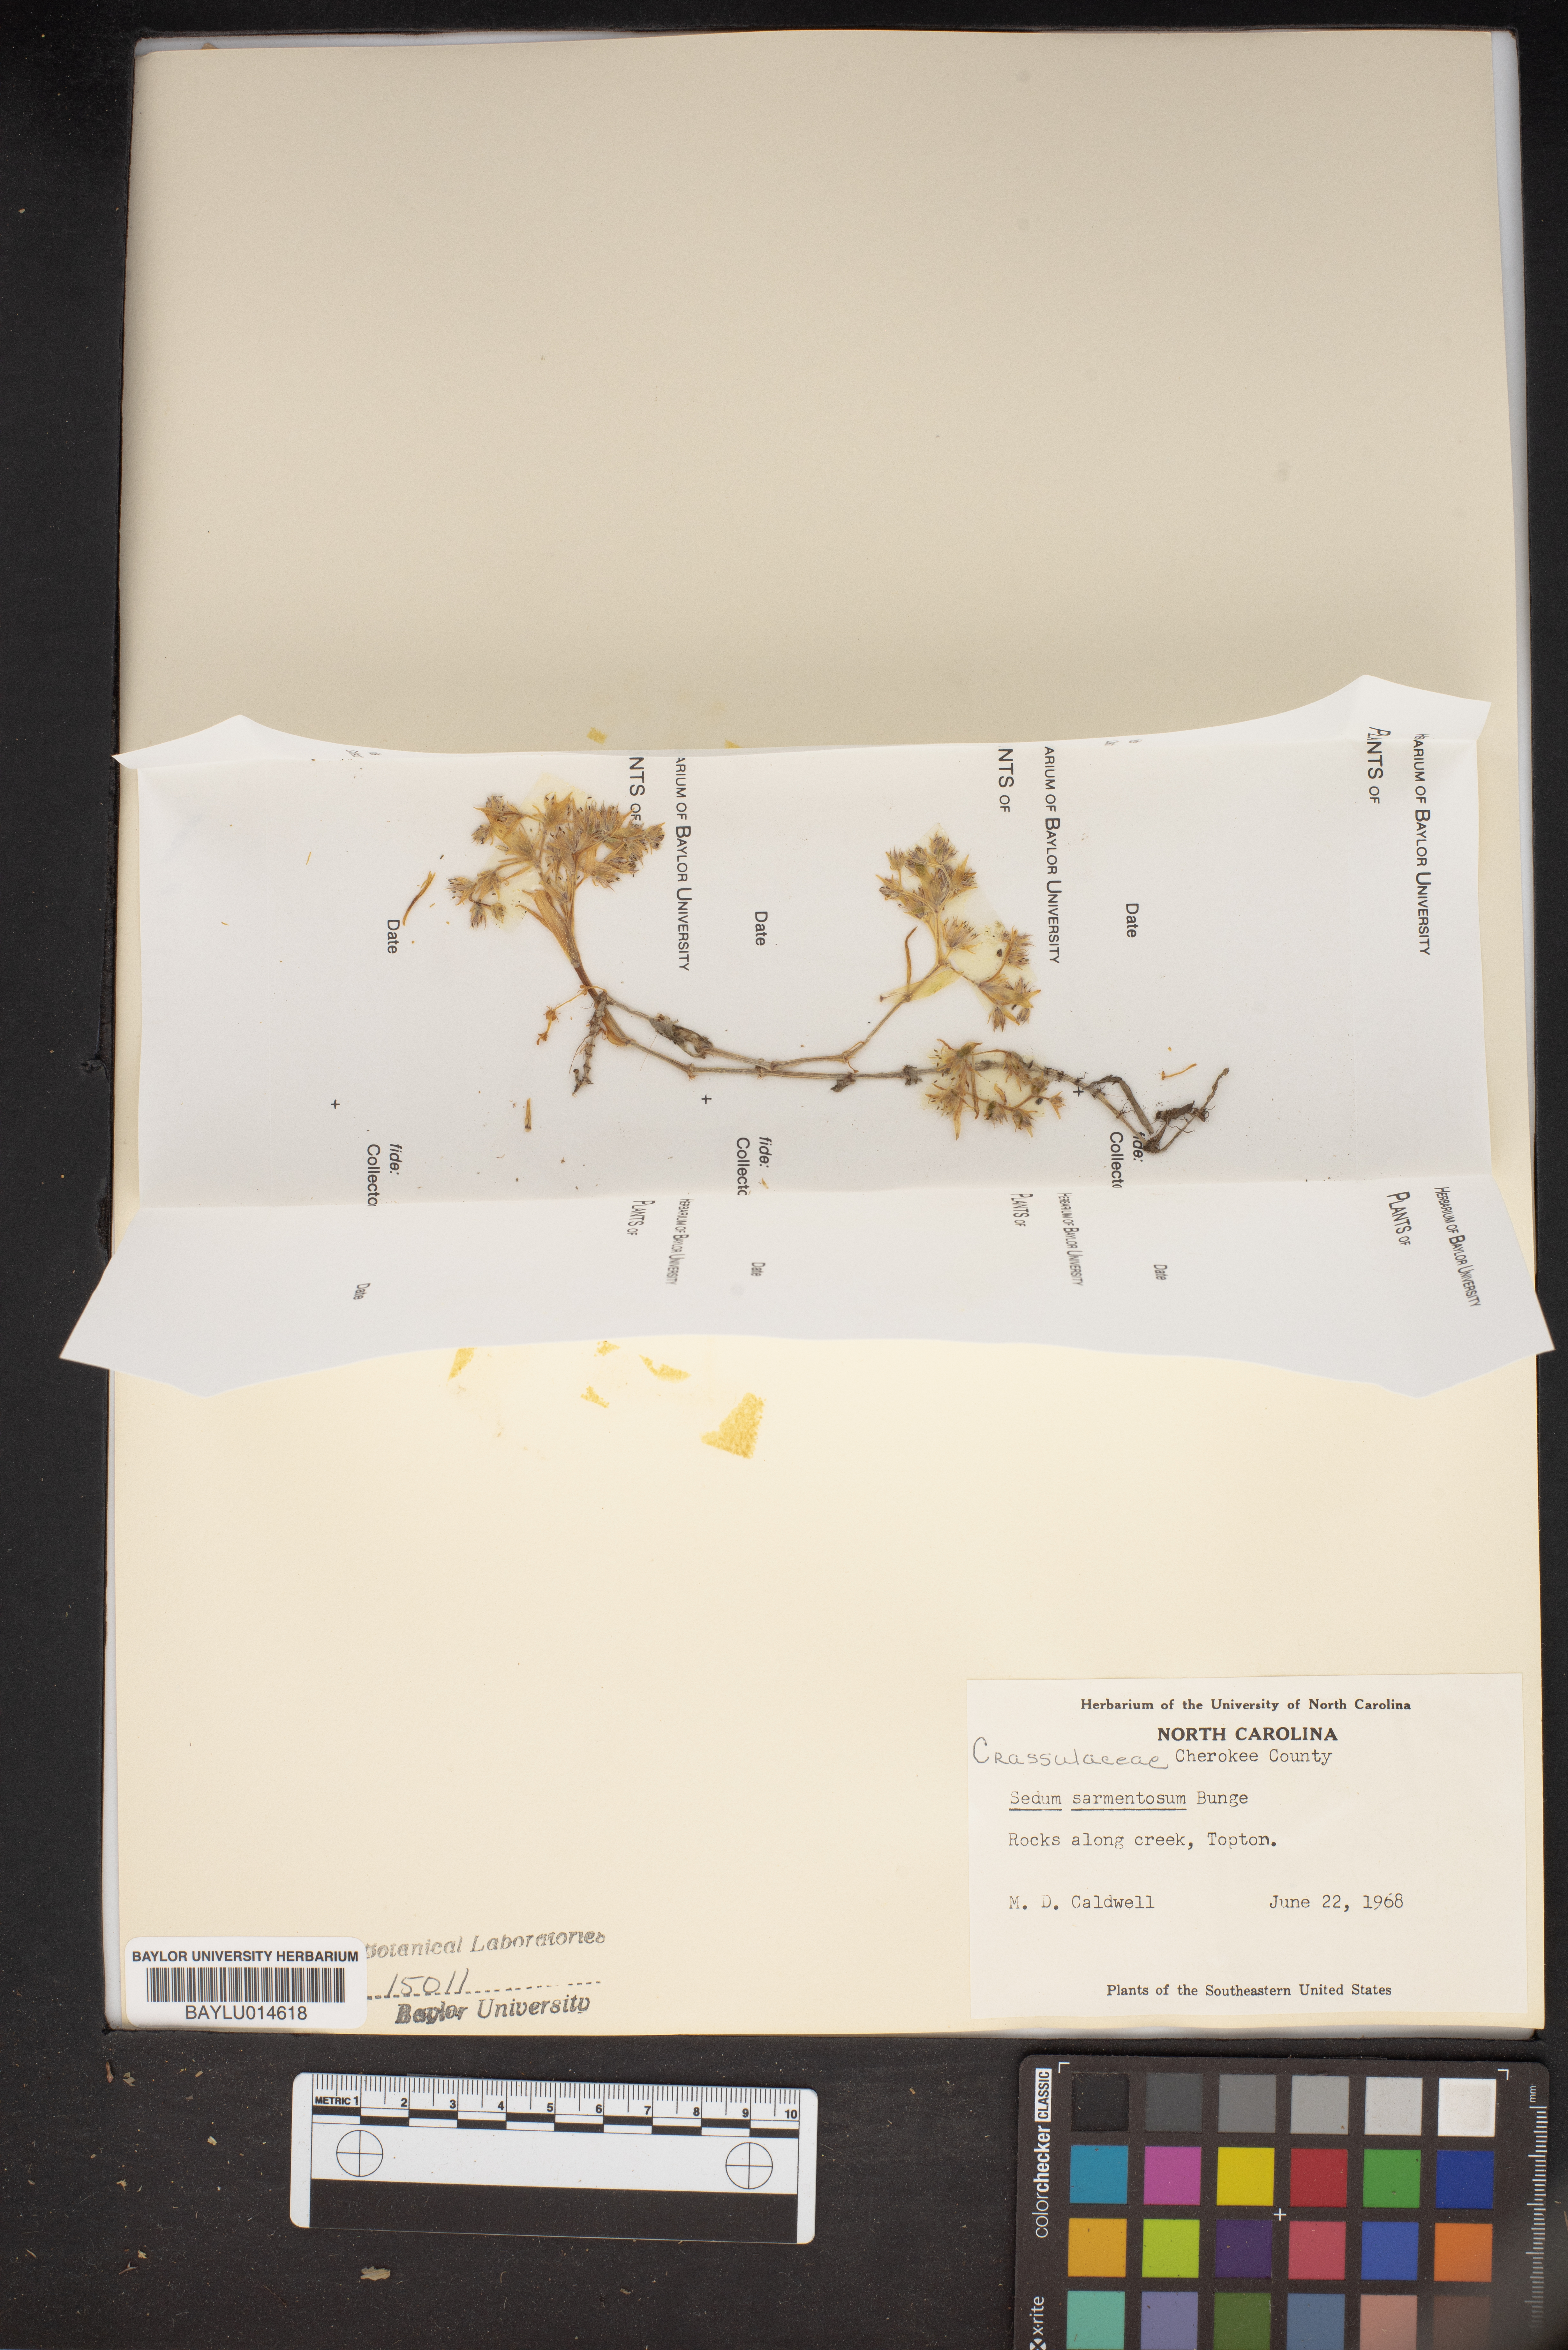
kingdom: Plantae
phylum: Tracheophyta
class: Magnoliopsida
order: Saxifragales
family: Crassulaceae
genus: Sedum
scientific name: Sedum sarmentosum
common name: Stringy stonecrop
